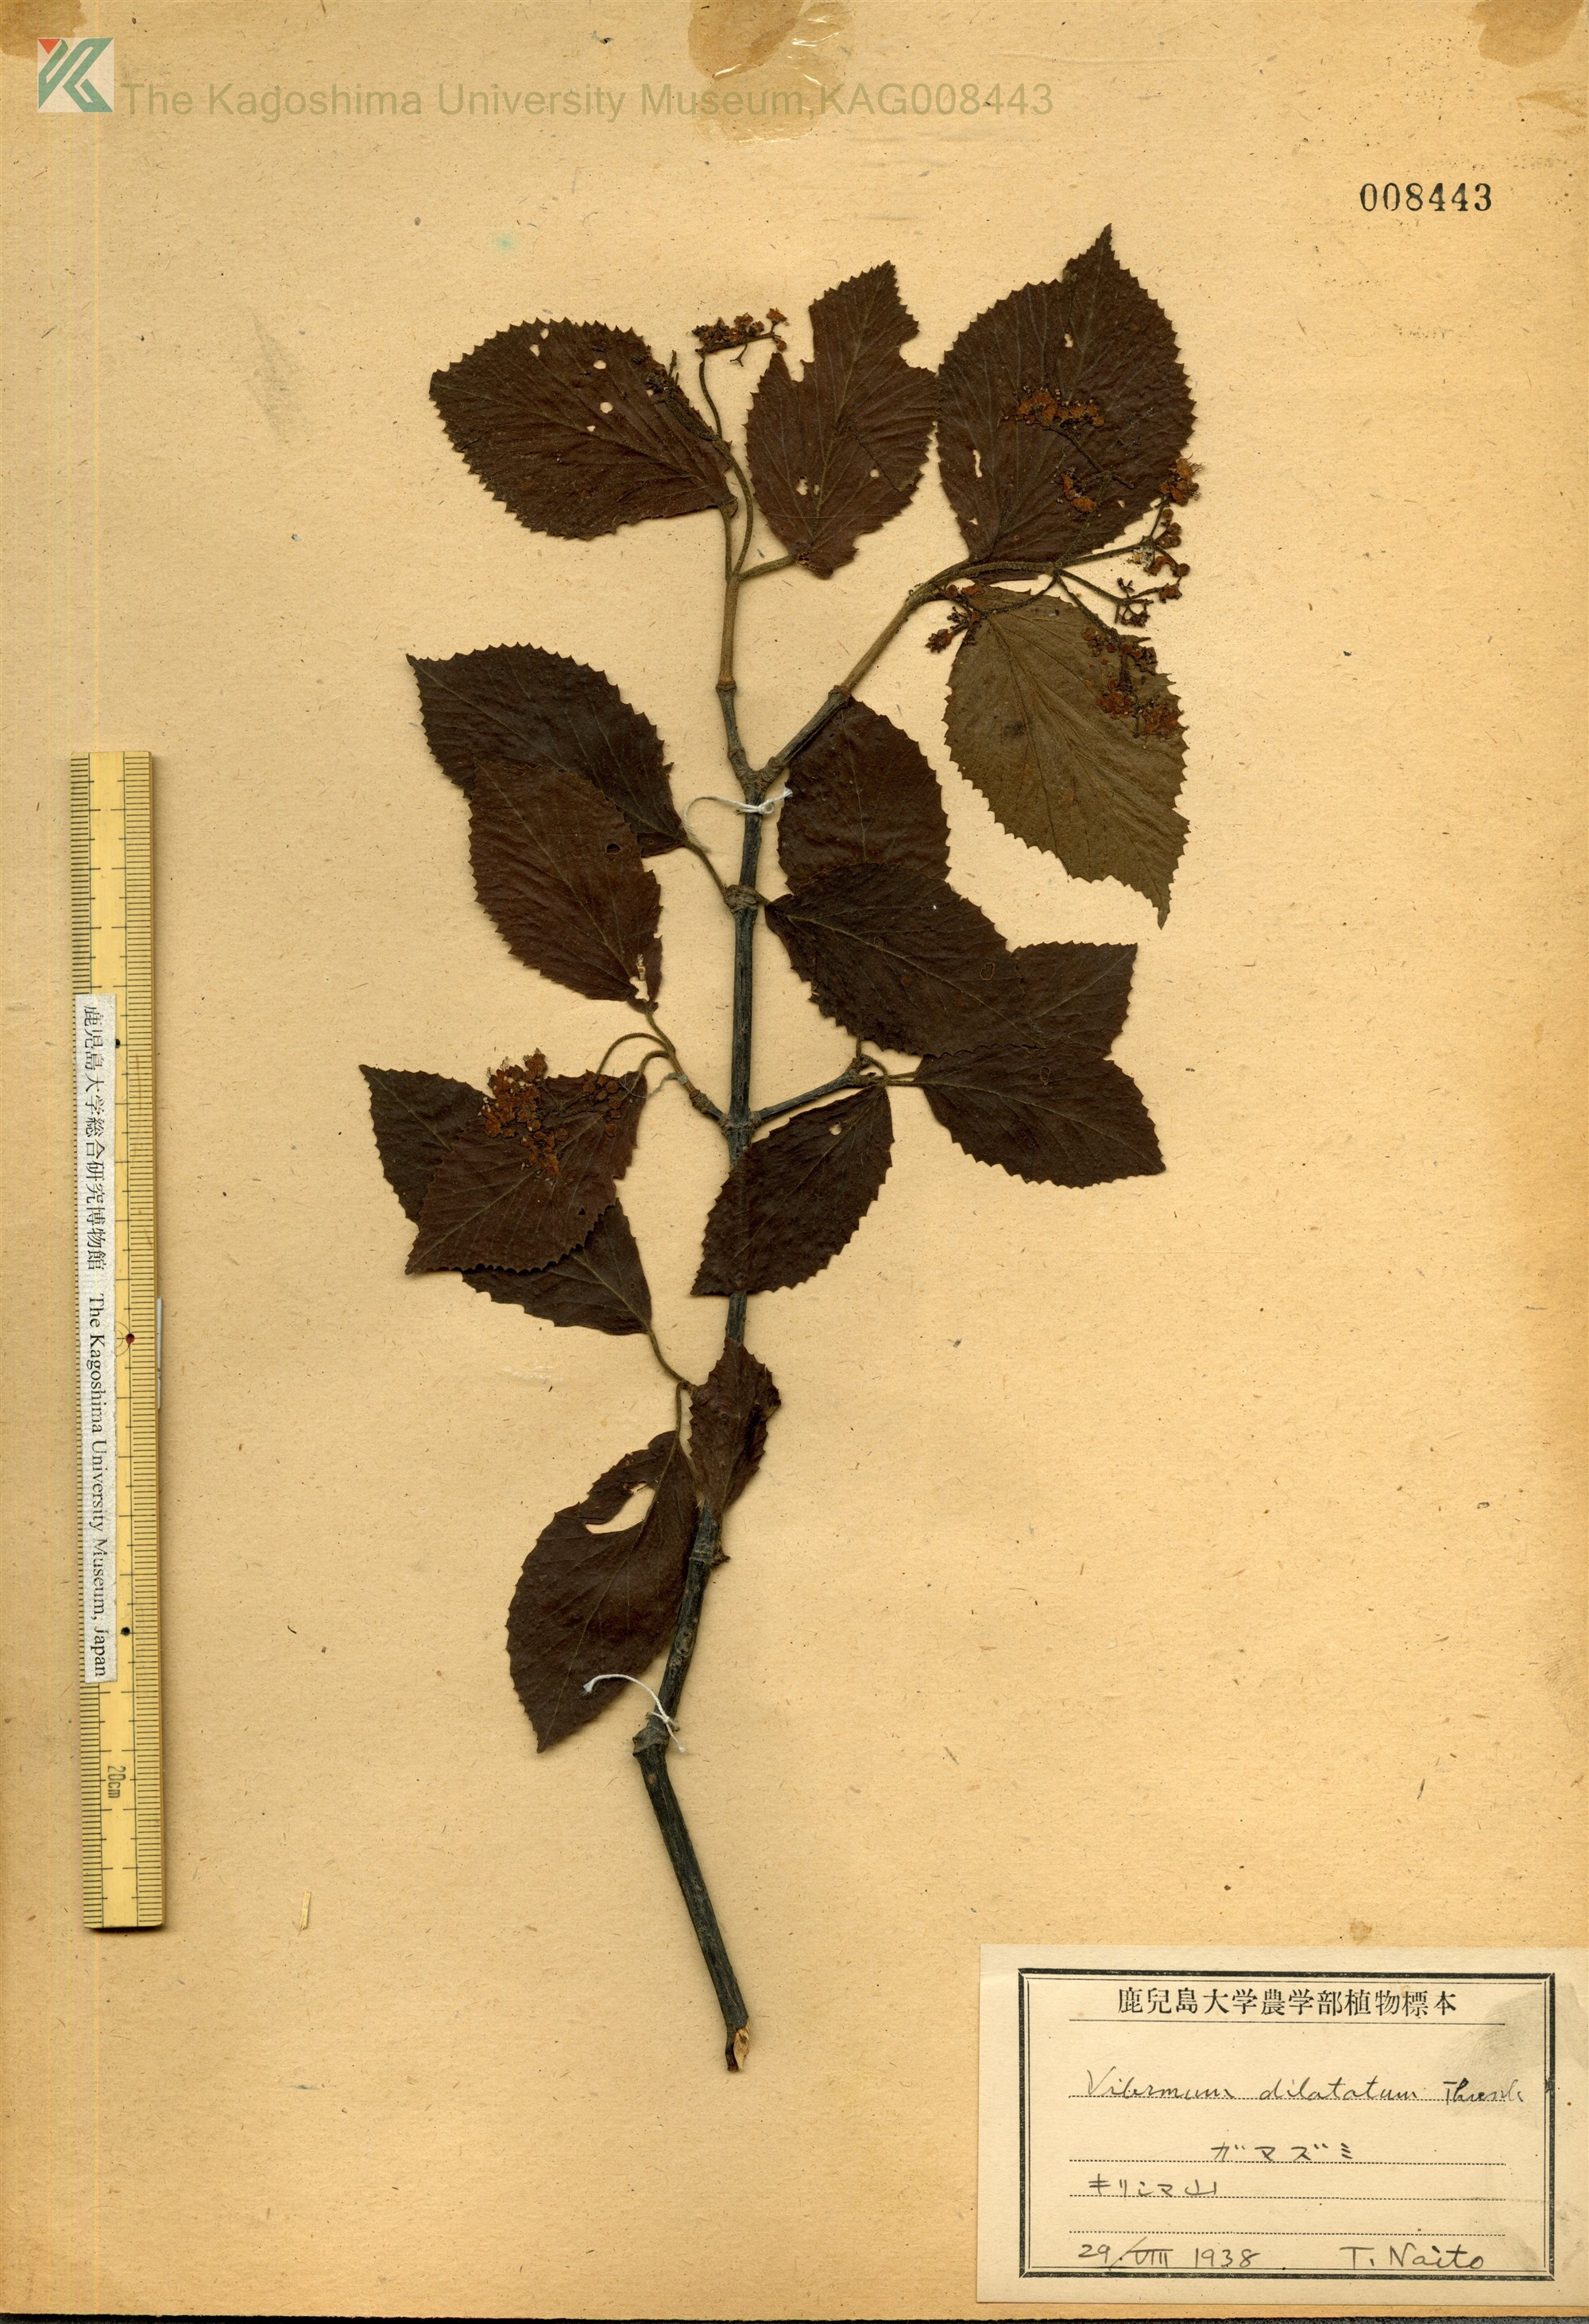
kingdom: Plantae
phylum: Tracheophyta
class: Magnoliopsida
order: Dipsacales
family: Viburnaceae
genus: Viburnum
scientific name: Viburnum dilatatum
